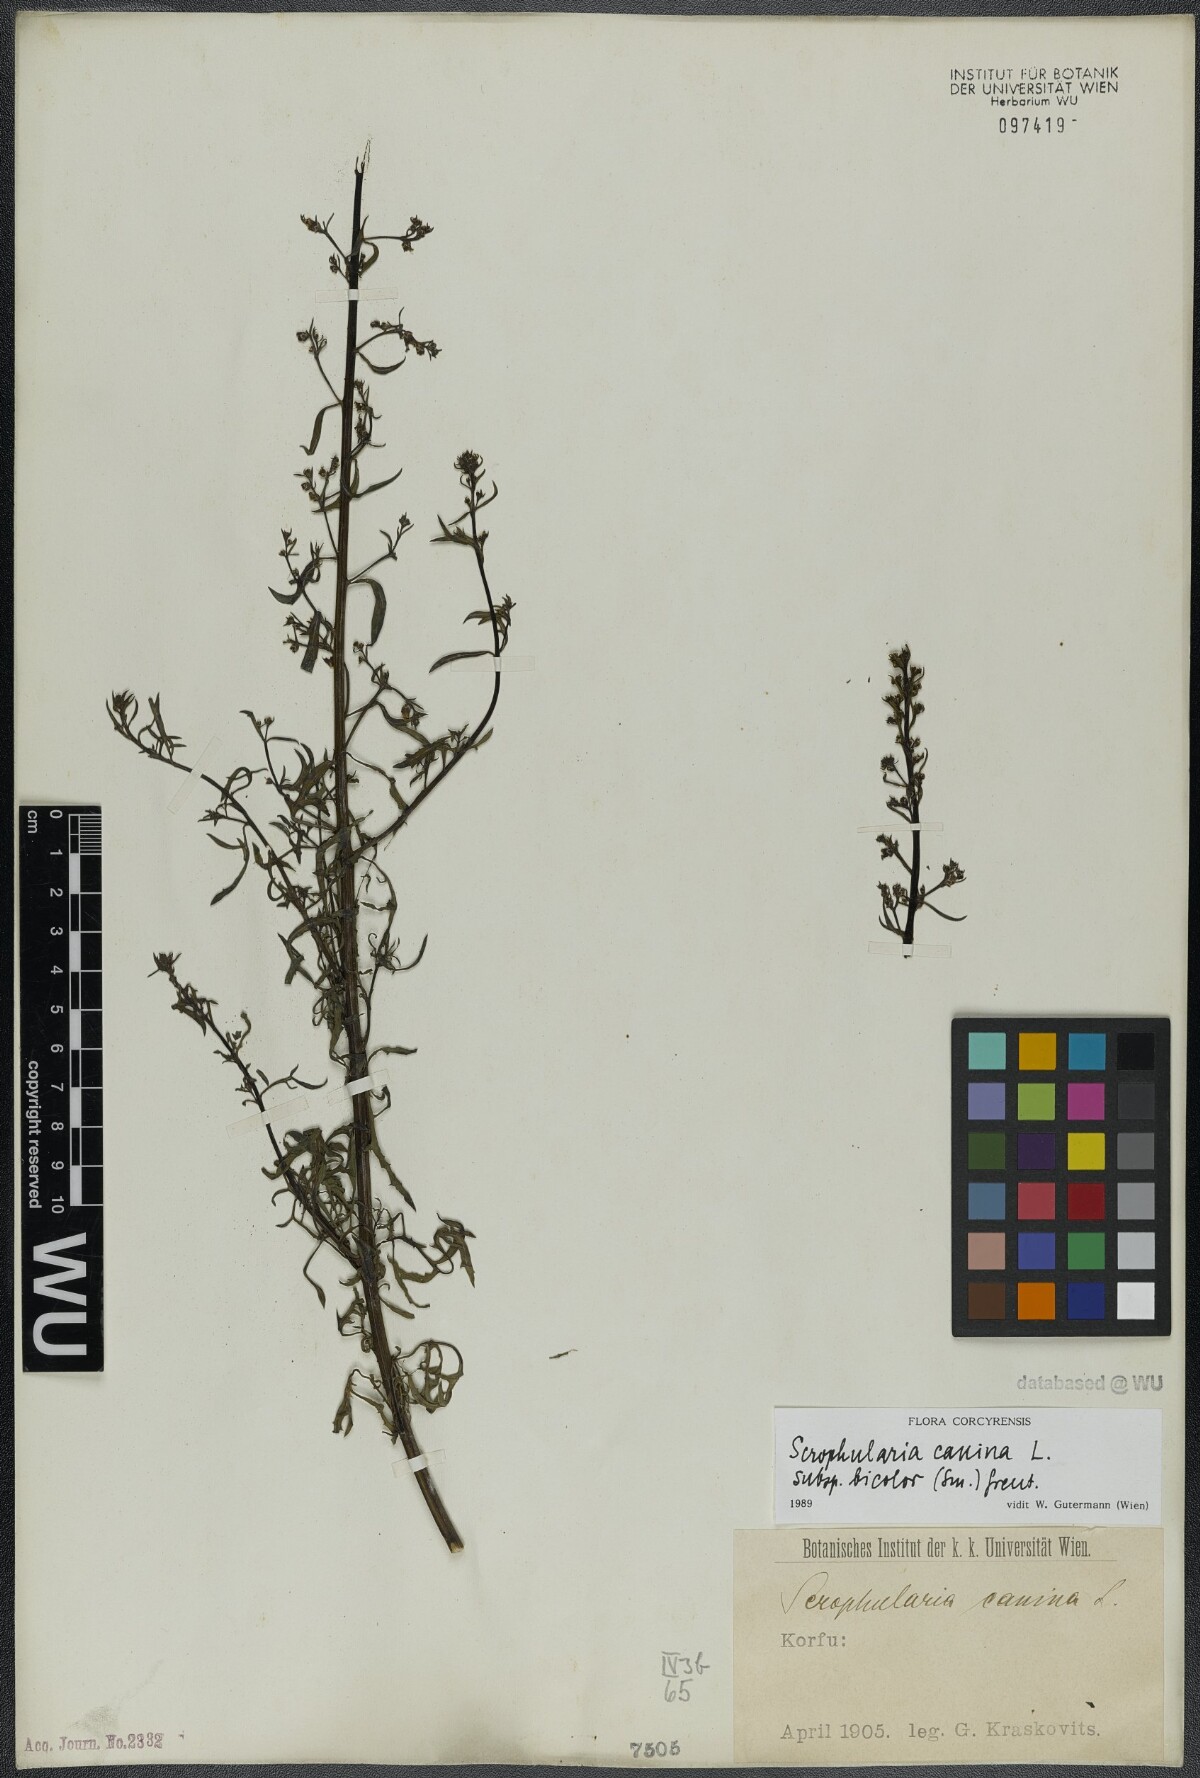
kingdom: Plantae
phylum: Tracheophyta
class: Magnoliopsida
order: Lamiales
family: Scrophulariaceae
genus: Scrophularia
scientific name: Scrophularia canina
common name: French figwort
